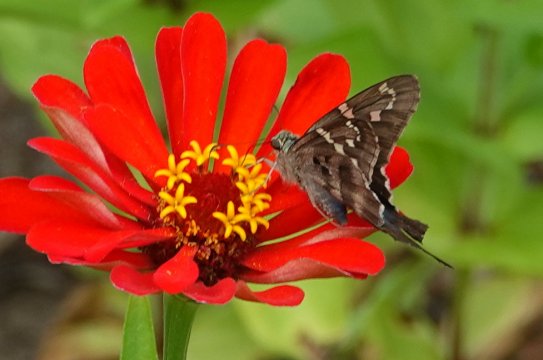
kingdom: Animalia
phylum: Arthropoda
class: Insecta
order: Lepidoptera
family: Hesperiidae
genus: Urbanus
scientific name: Urbanus proteus
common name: Long-tailed Skipper
